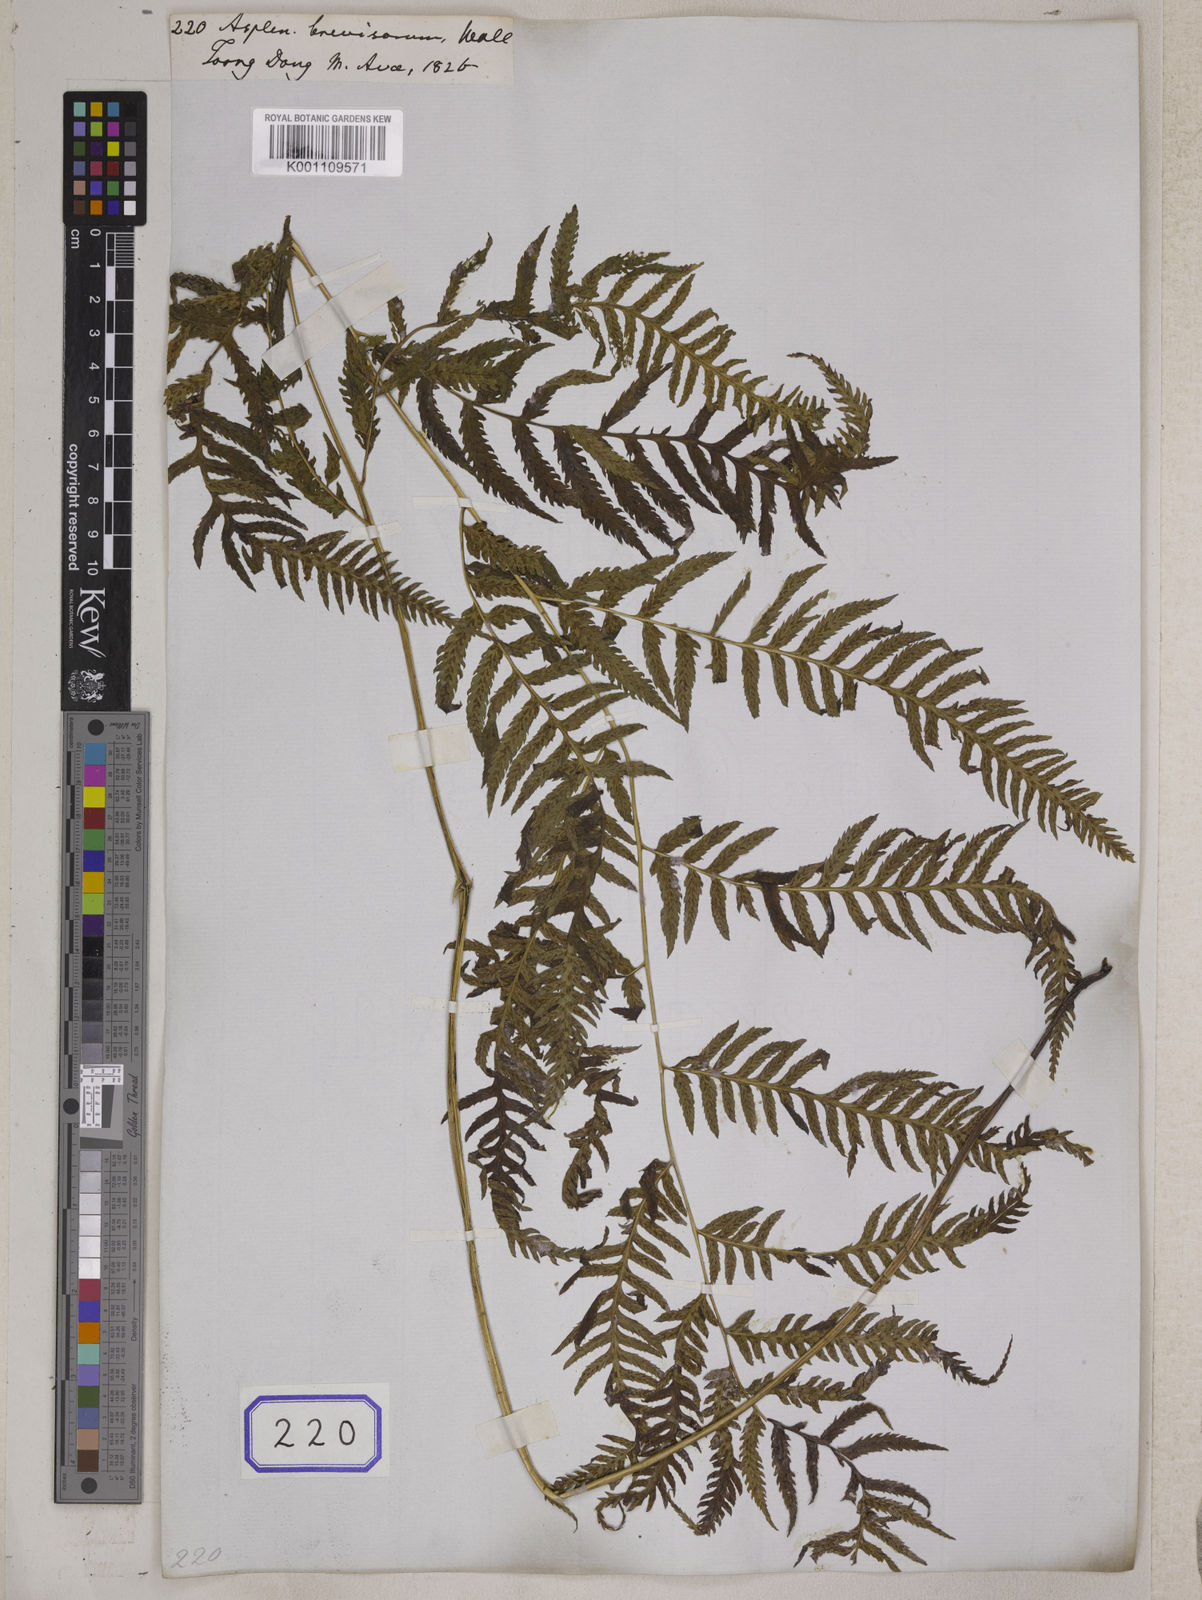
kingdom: Plantae
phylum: Tracheophyta
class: Polypodiopsida
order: Polypodiales
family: Athyriaceae
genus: Anisocampium
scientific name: Anisocampium niponicum
